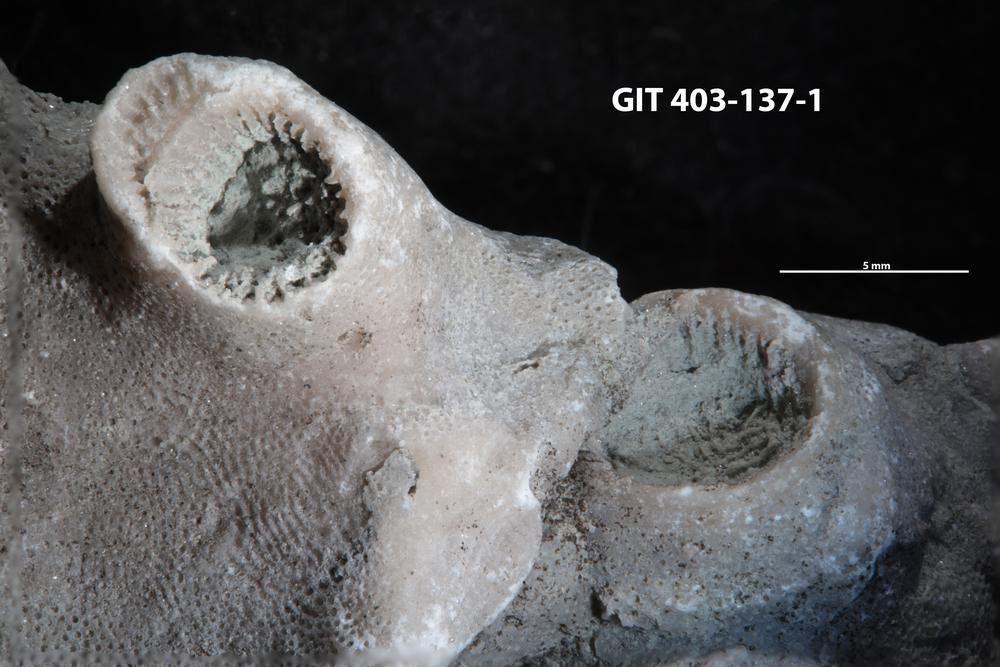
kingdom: Animalia
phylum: Cnidaria
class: Anthozoa
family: Tryplasmatidae
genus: Tryplasma
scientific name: Tryplasma
